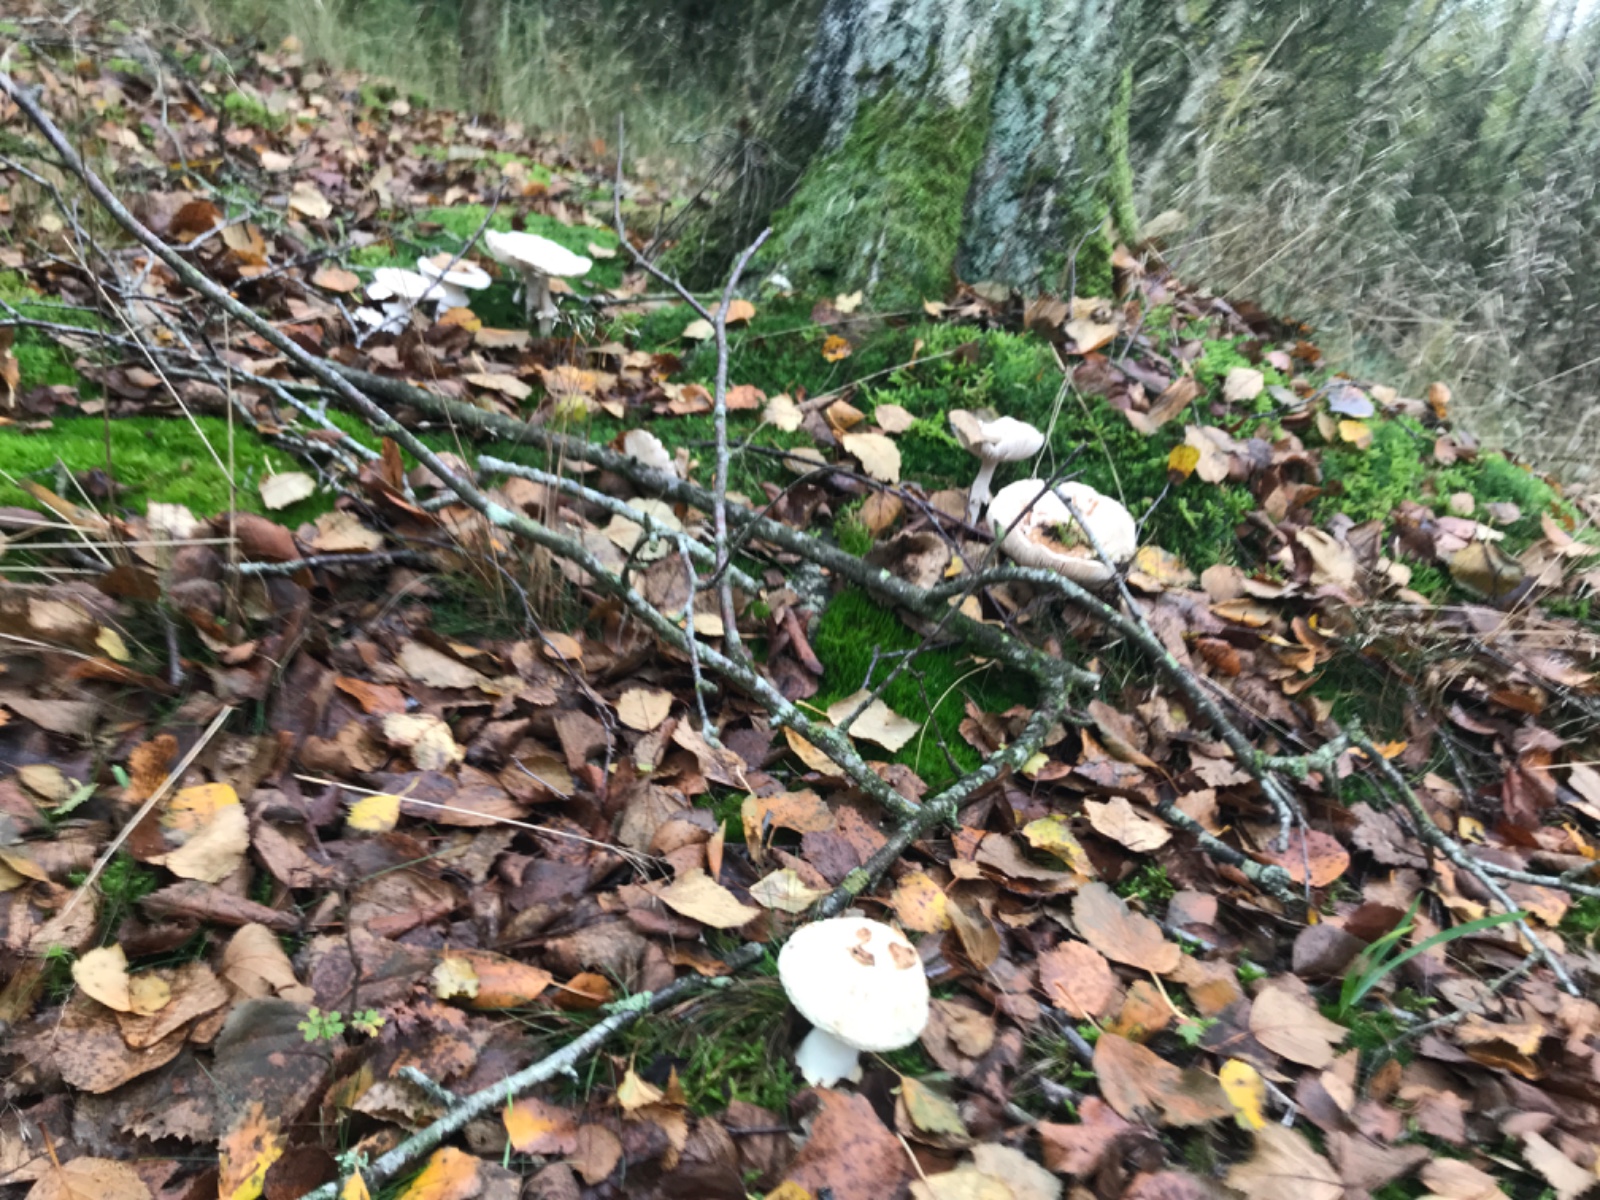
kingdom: Fungi
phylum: Basidiomycota
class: Agaricomycetes
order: Agaricales
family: Amanitaceae
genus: Amanita
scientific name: Amanita citrina
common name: kugleknoldet fluesvamp
